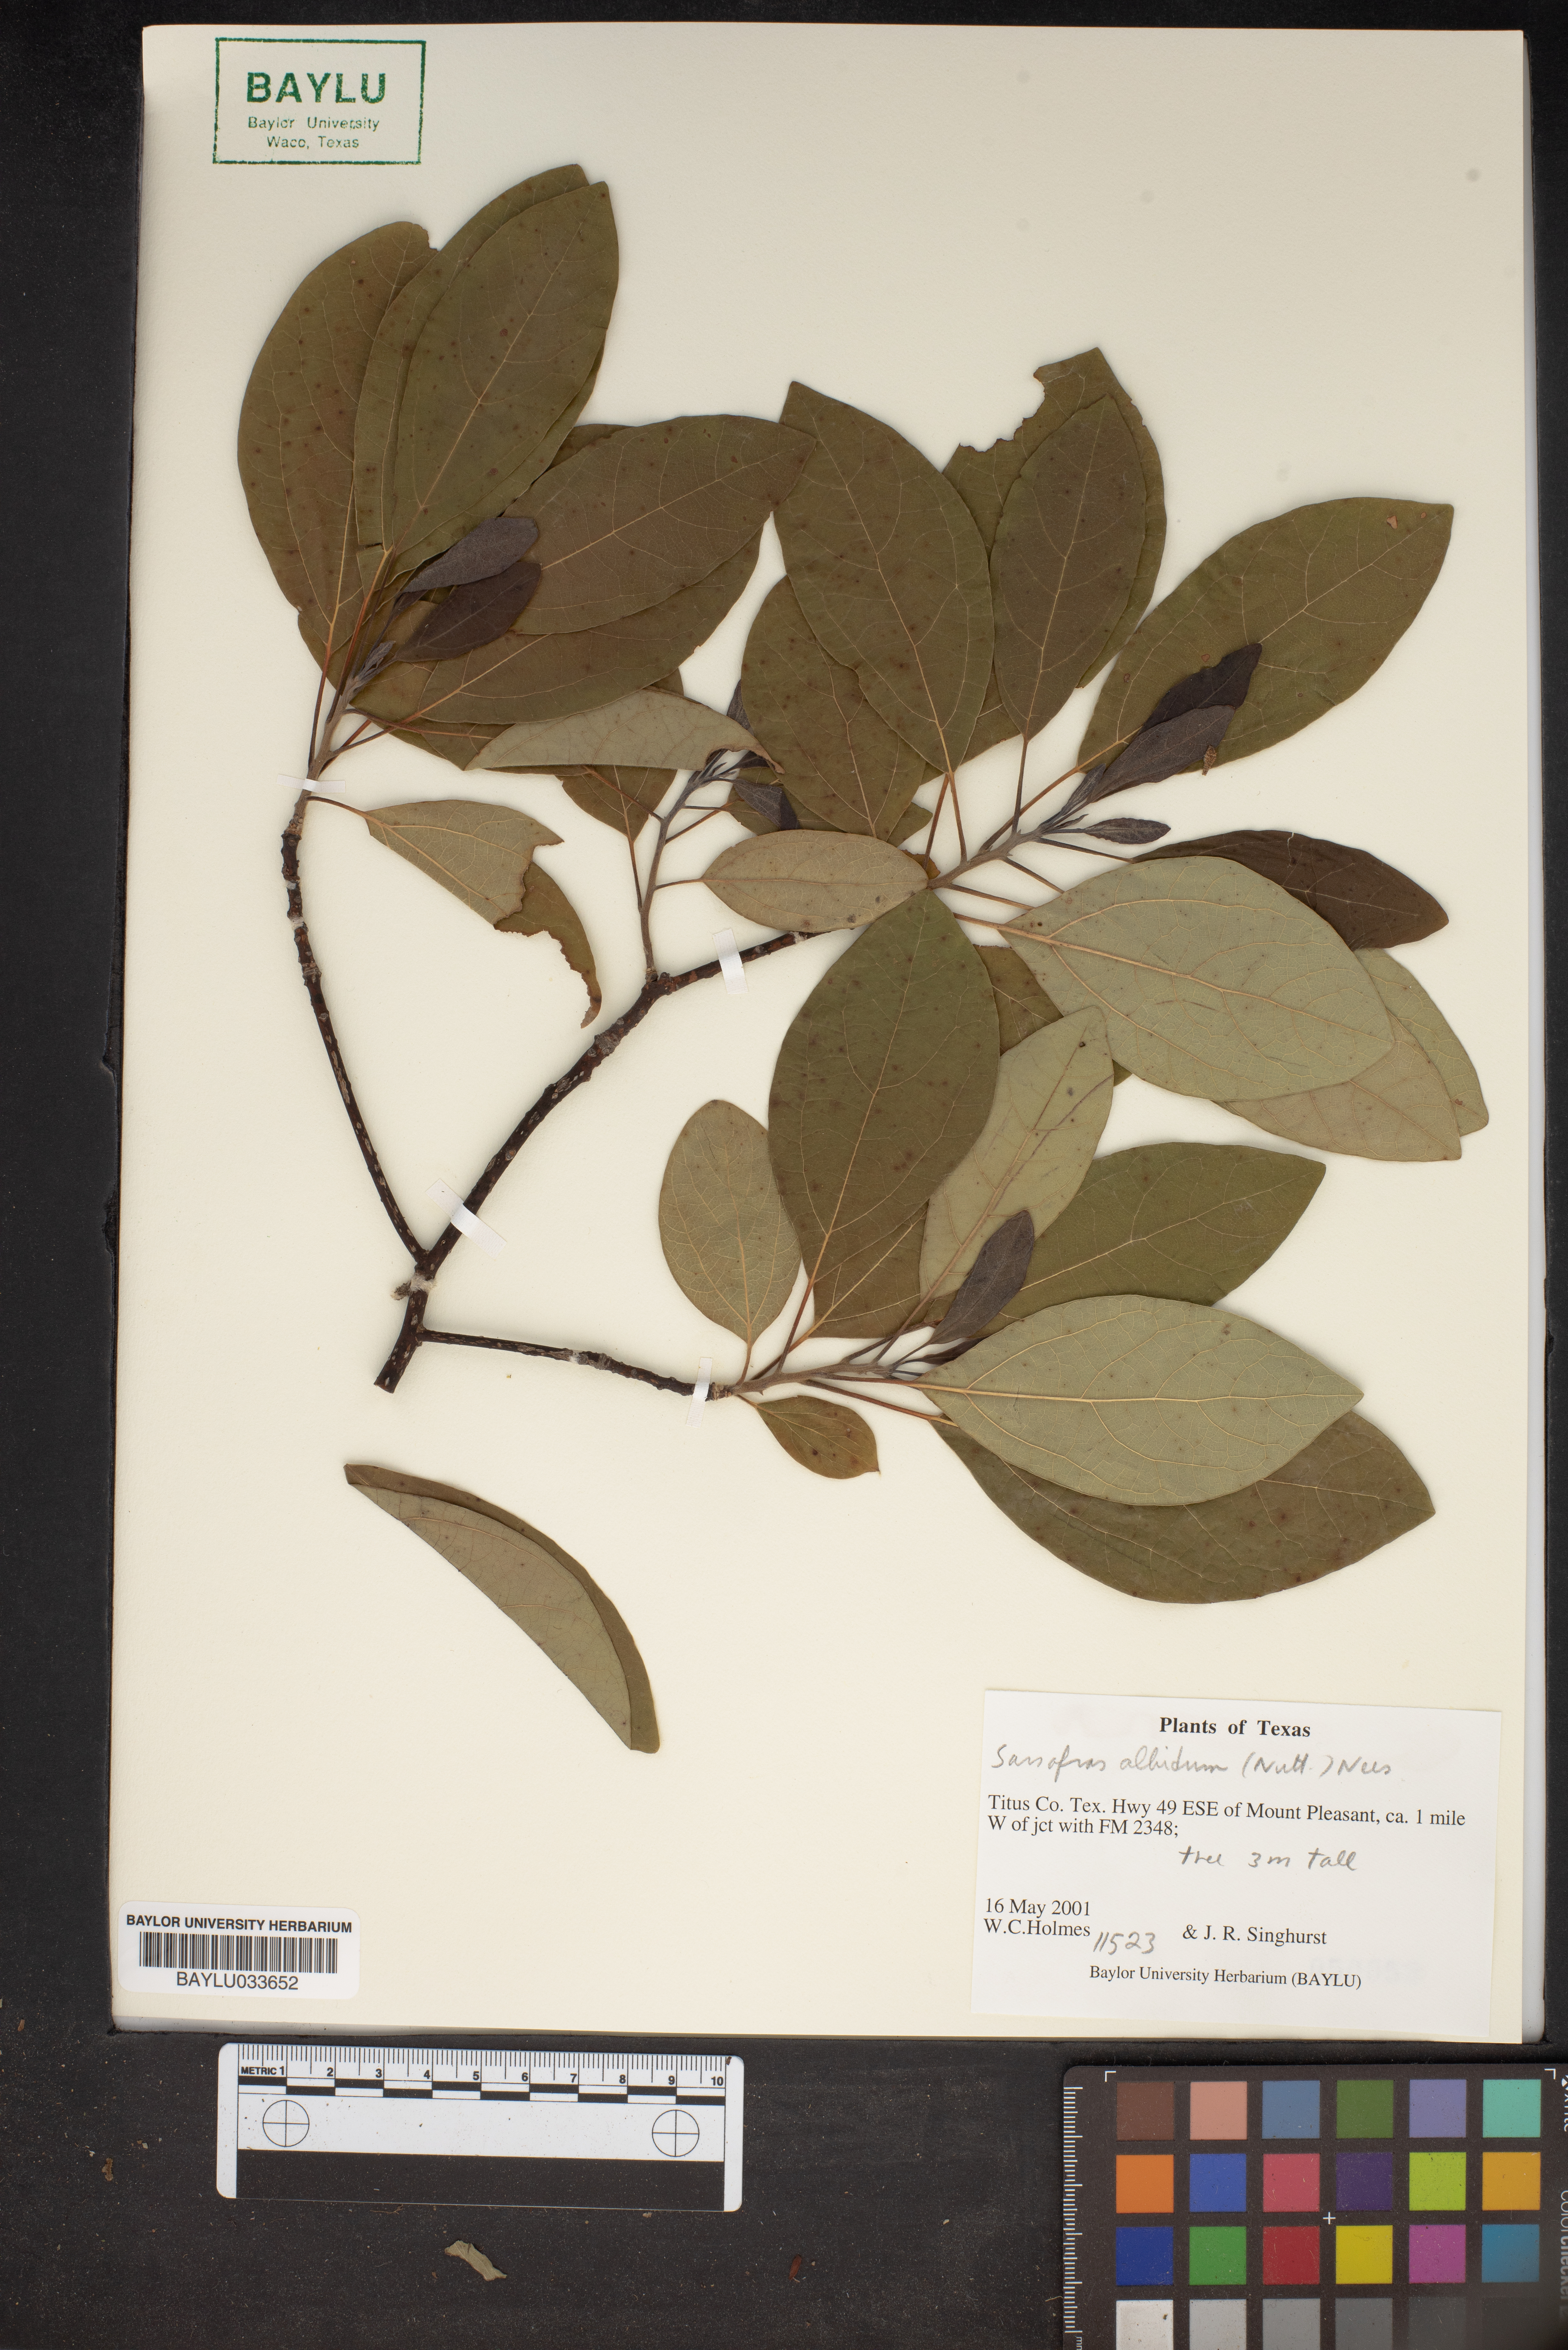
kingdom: Plantae
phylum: Tracheophyta
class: Magnoliopsida
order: Laurales
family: Lauraceae
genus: Sassafras
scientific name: Sassafras albidum
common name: Sassafras
